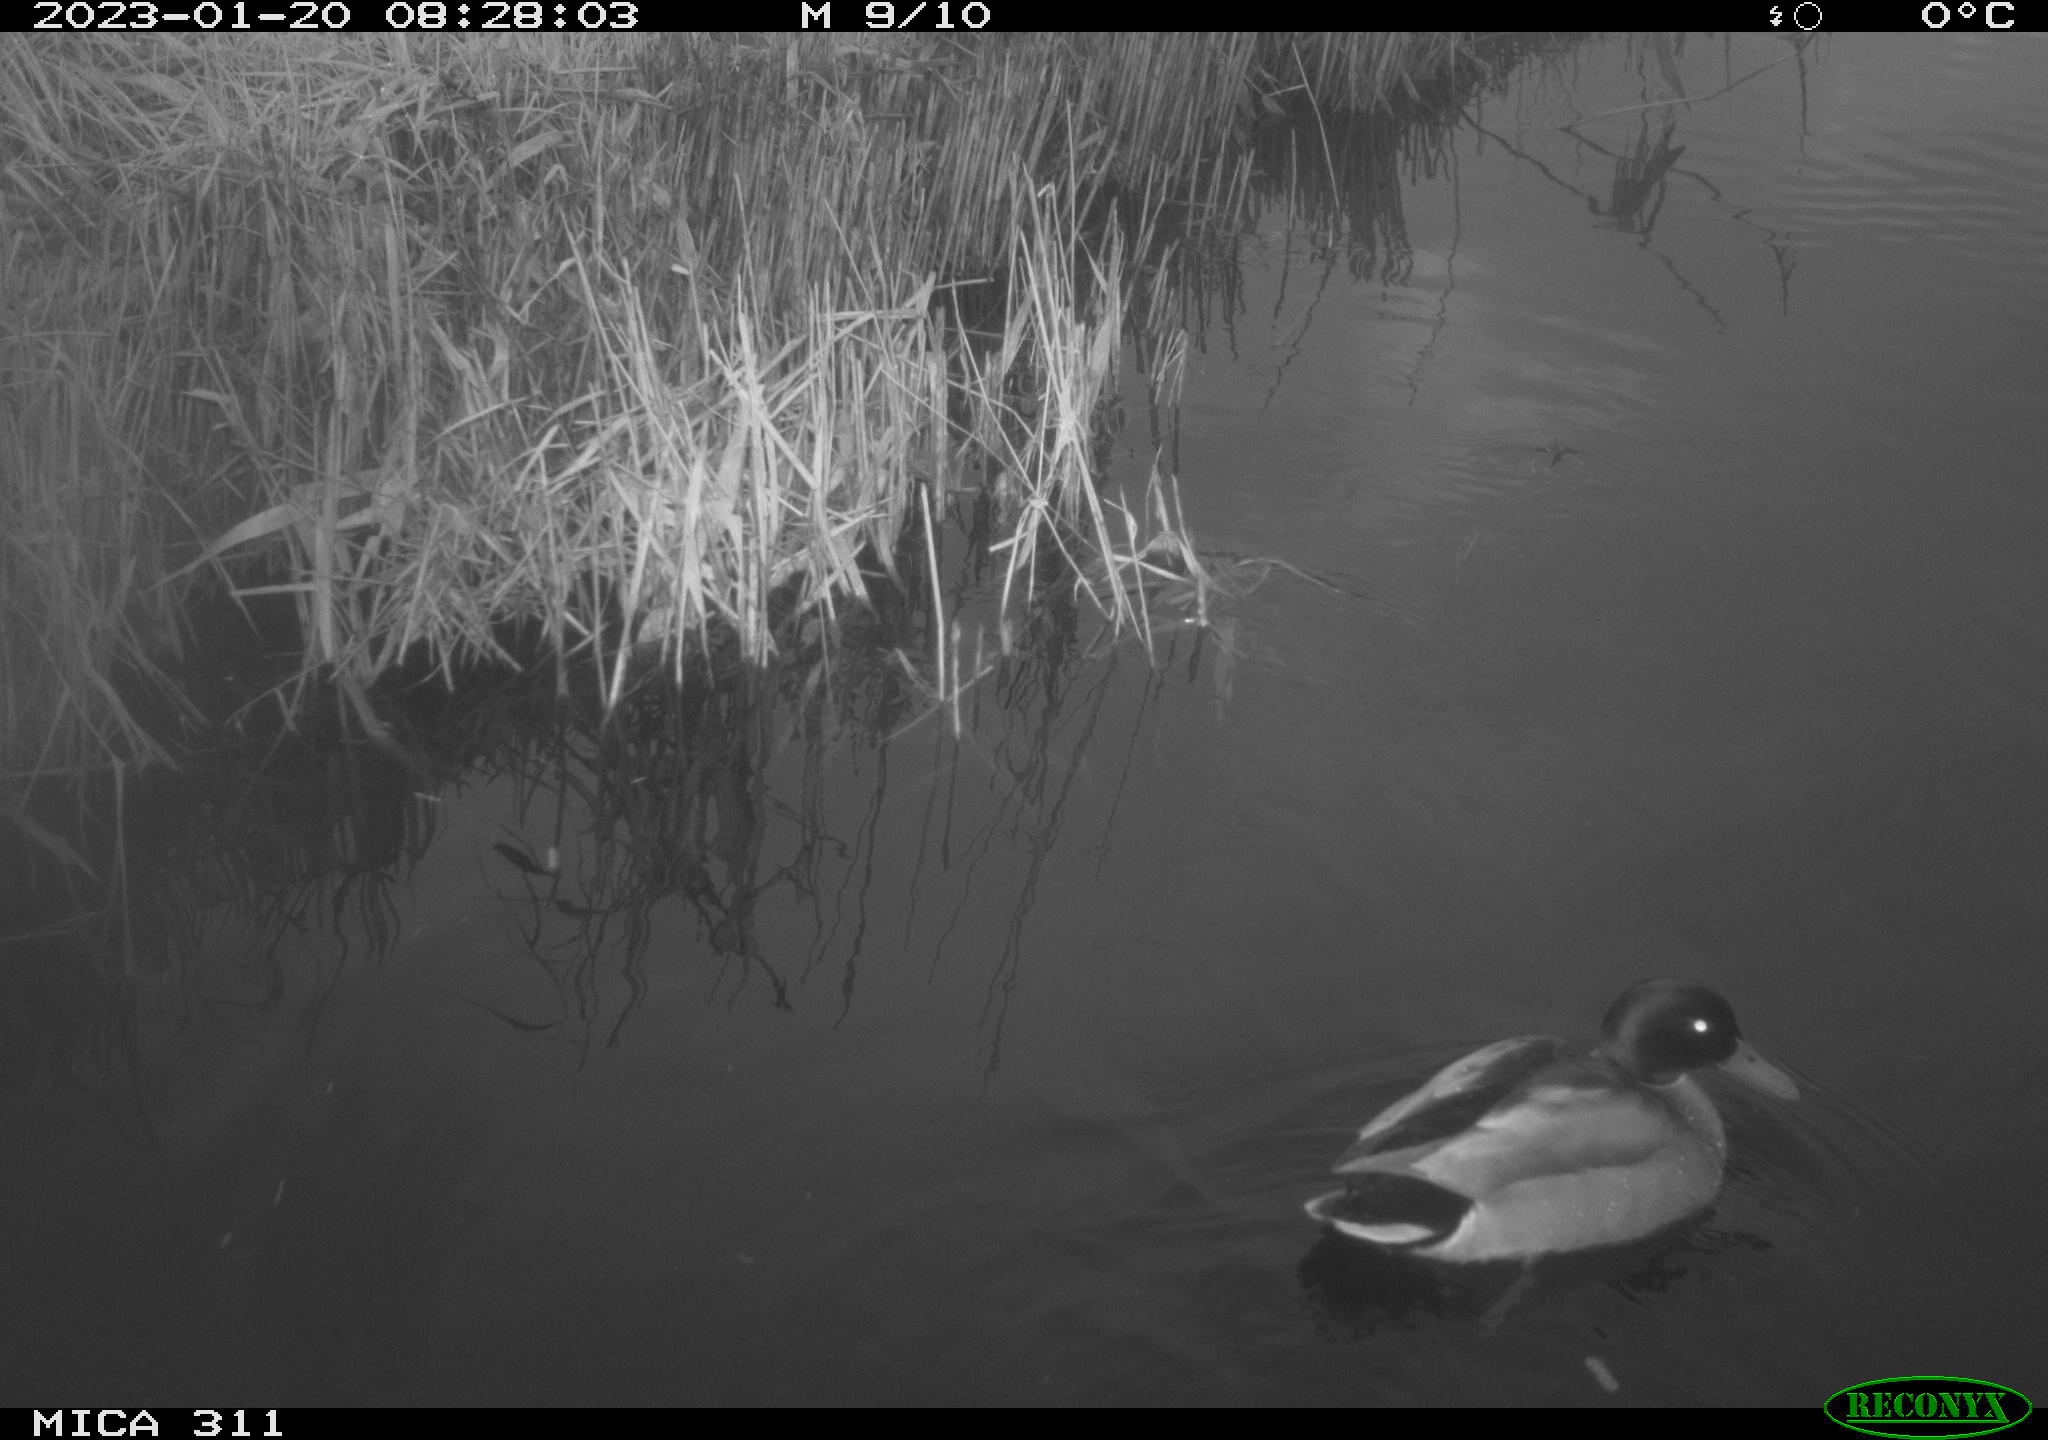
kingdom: Animalia
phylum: Chordata
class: Aves
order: Anseriformes
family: Anatidae
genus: Anas
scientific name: Anas
